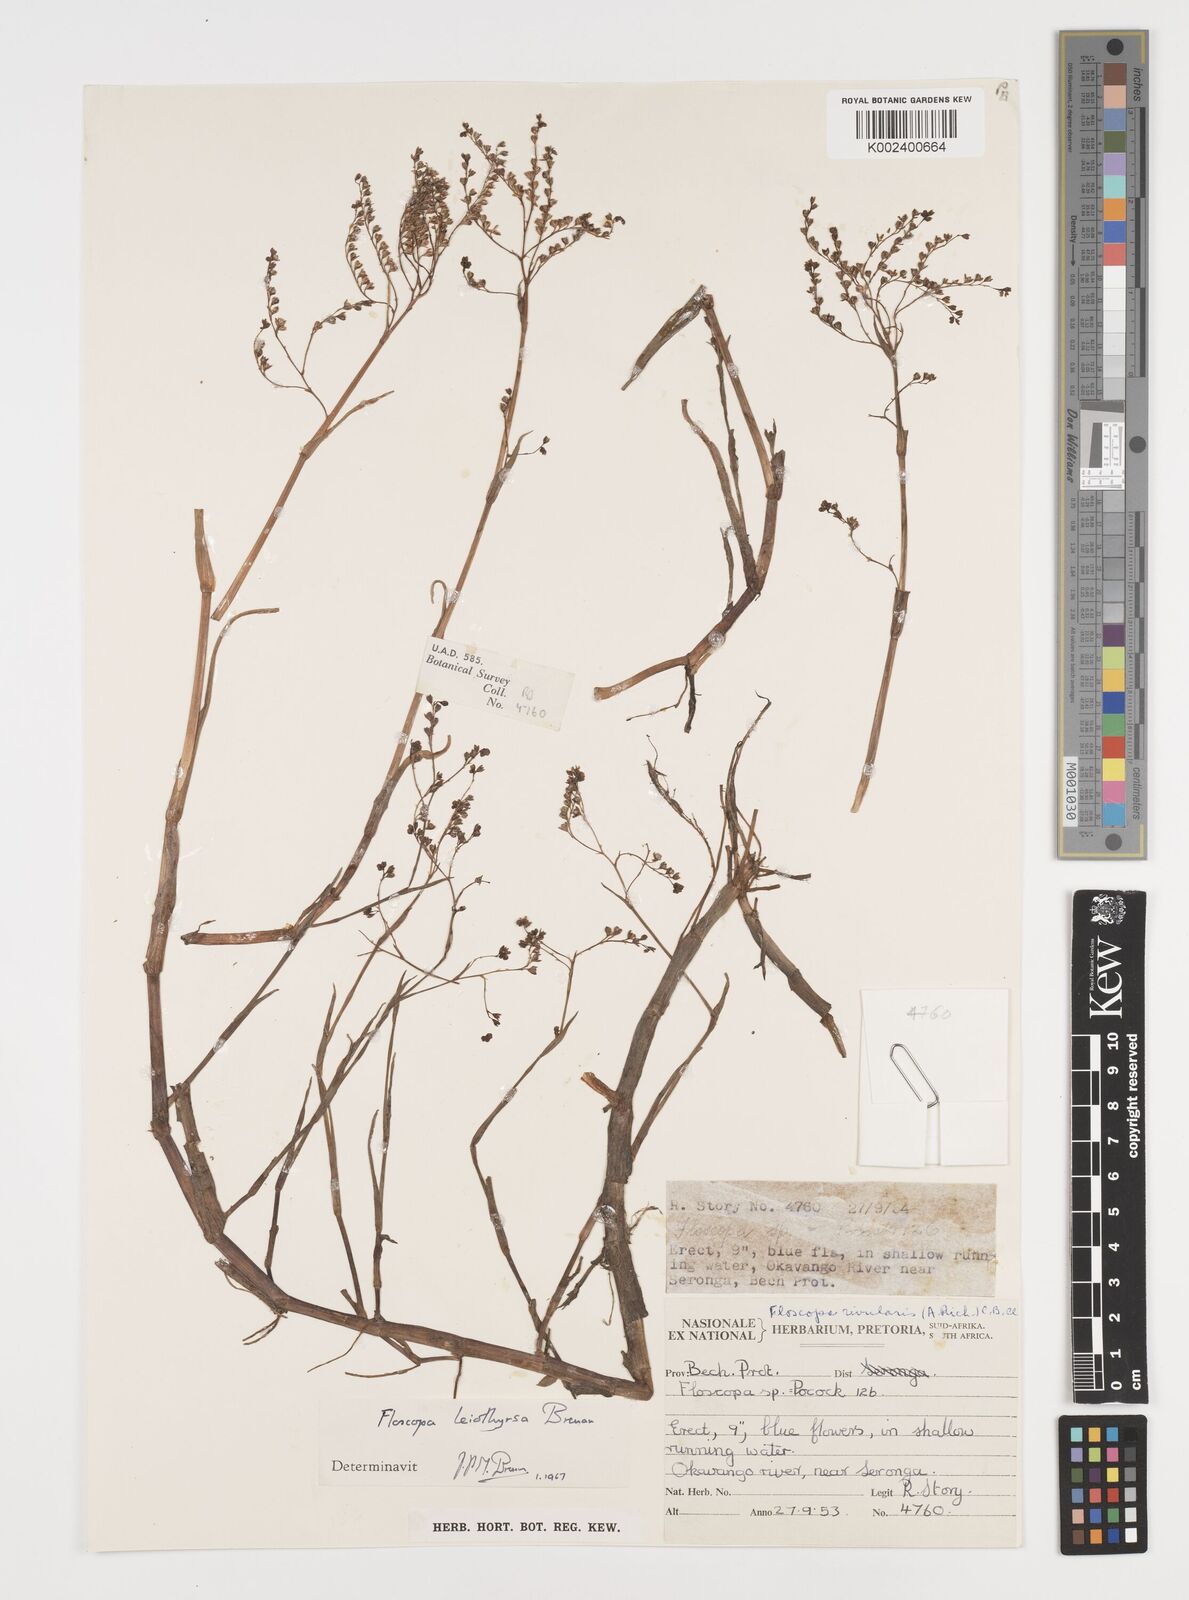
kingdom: Plantae
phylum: Tracheophyta
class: Liliopsida
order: Commelinales
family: Commelinaceae
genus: Floscopa
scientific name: Floscopa leiothyrsa
